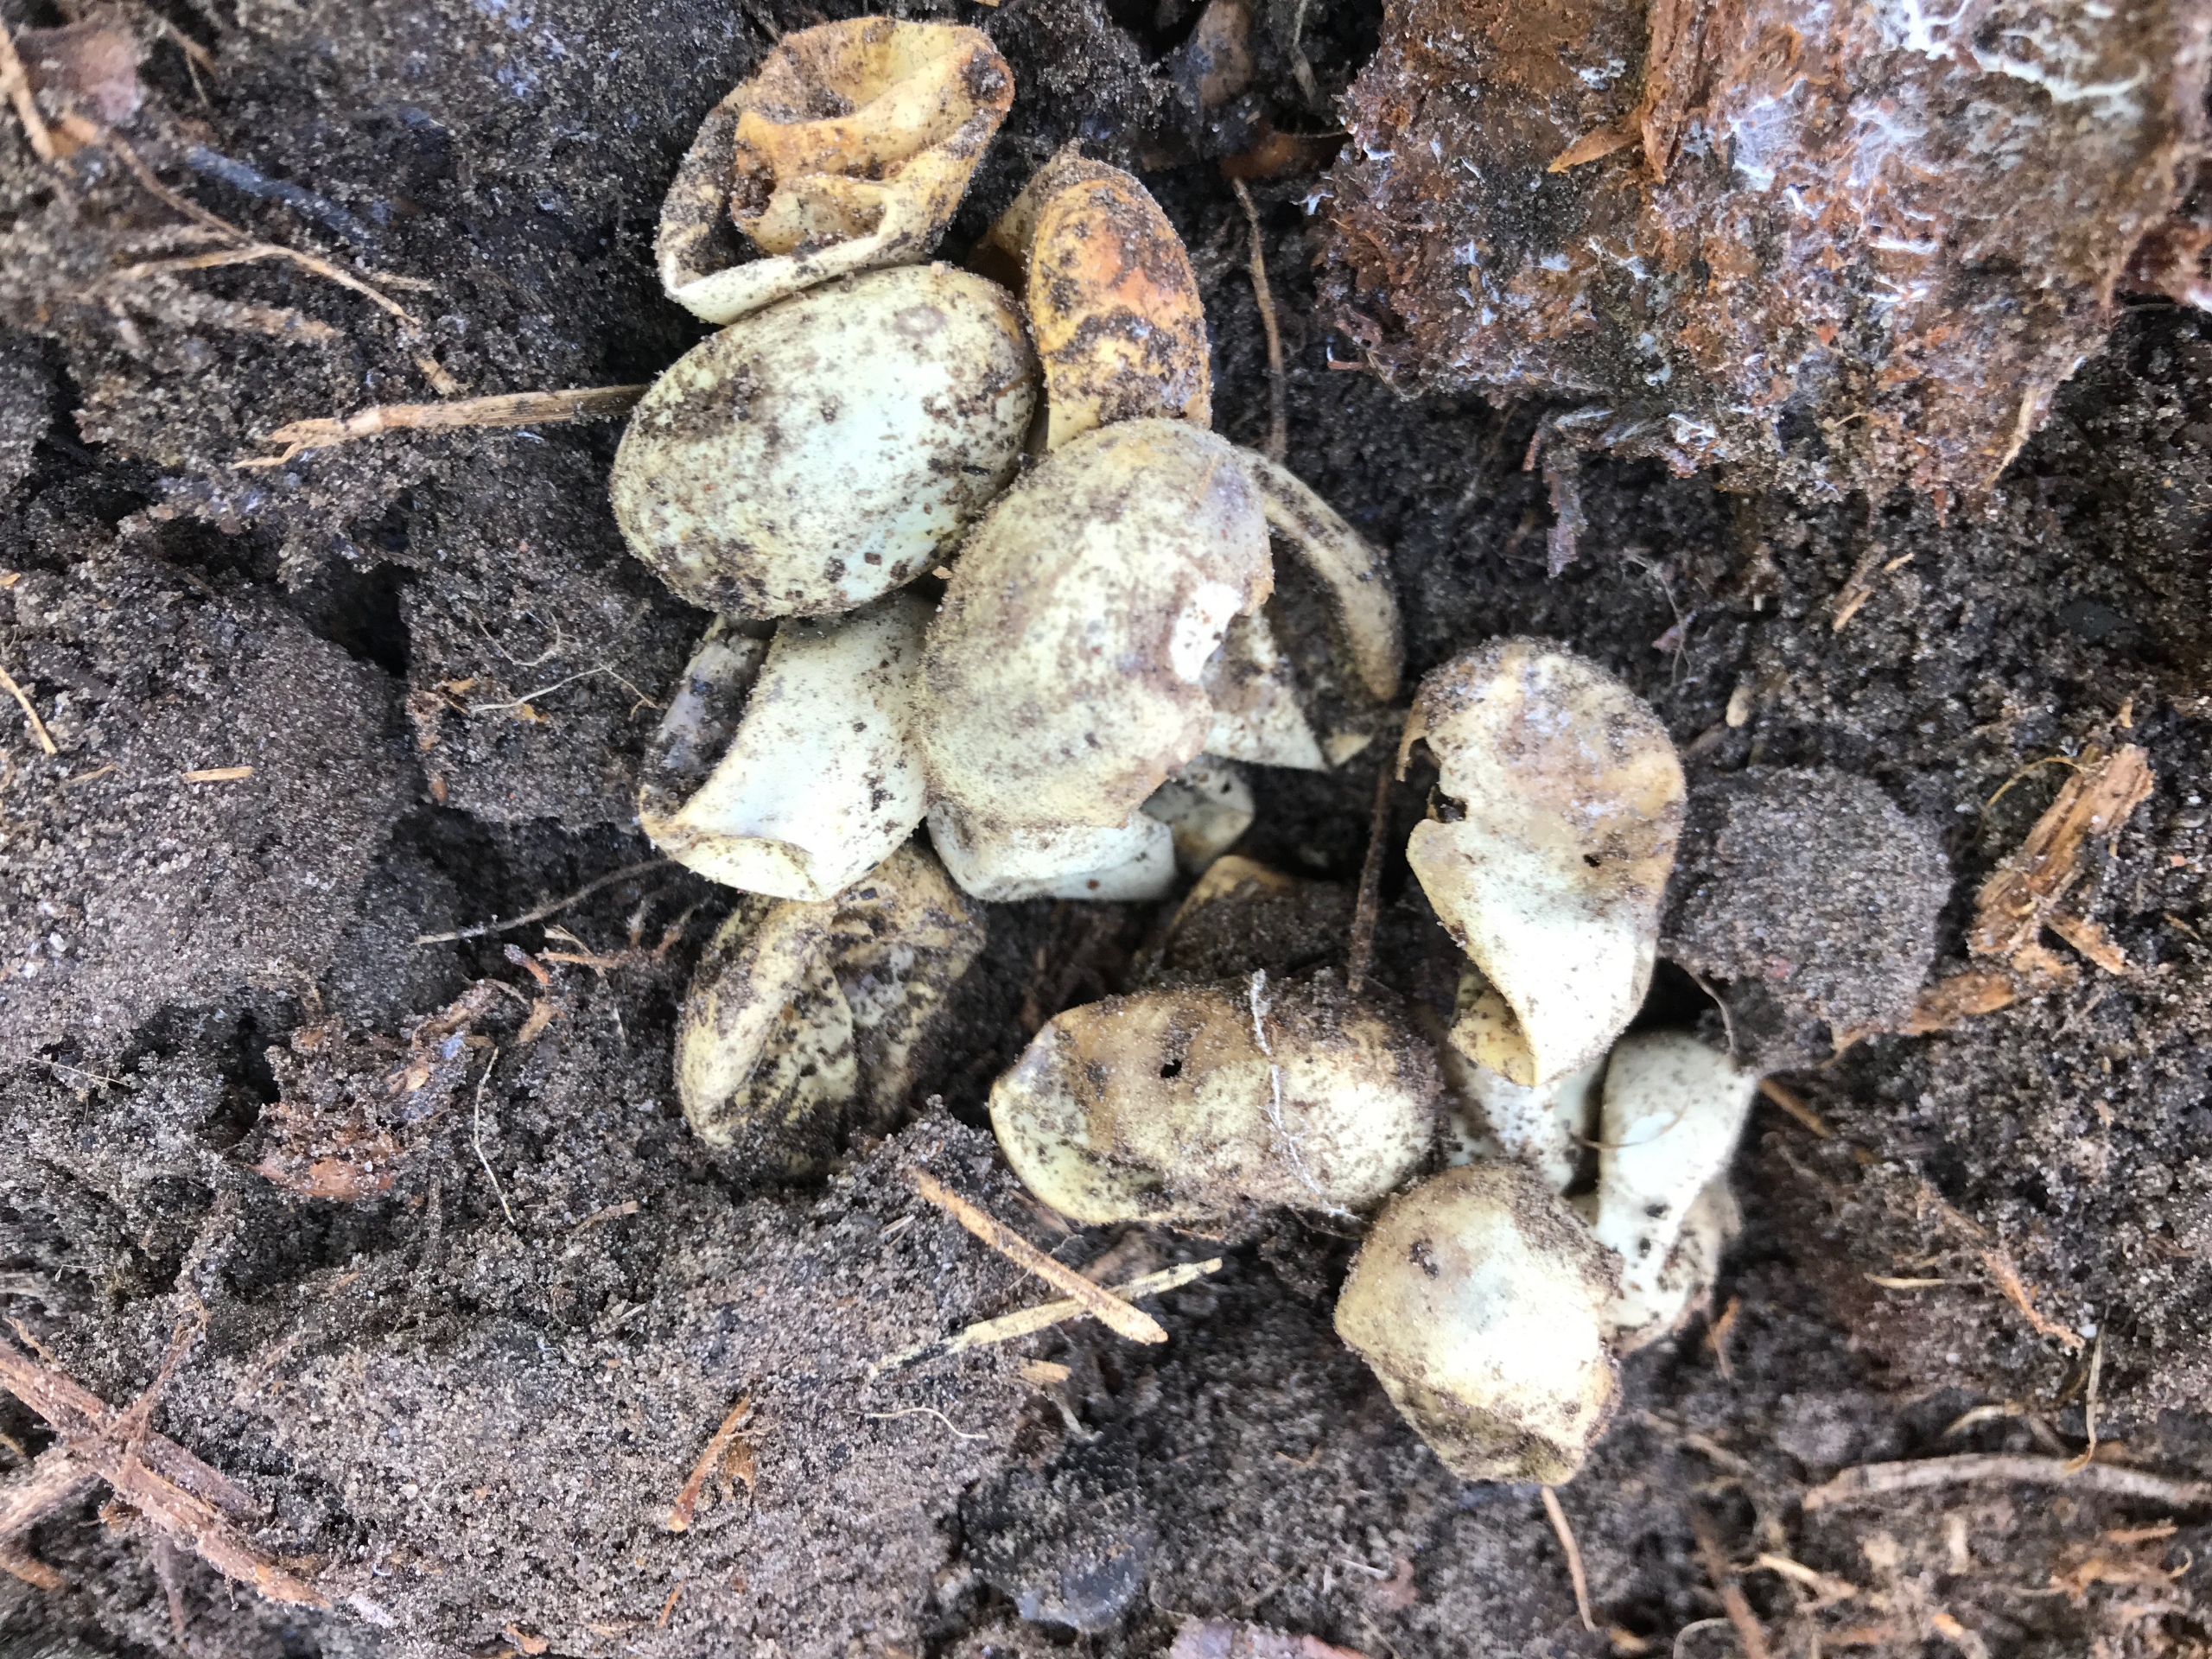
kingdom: Animalia
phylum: Chordata
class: Squamata
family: Colubridae
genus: Natrix
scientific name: Natrix natrix
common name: Snog
